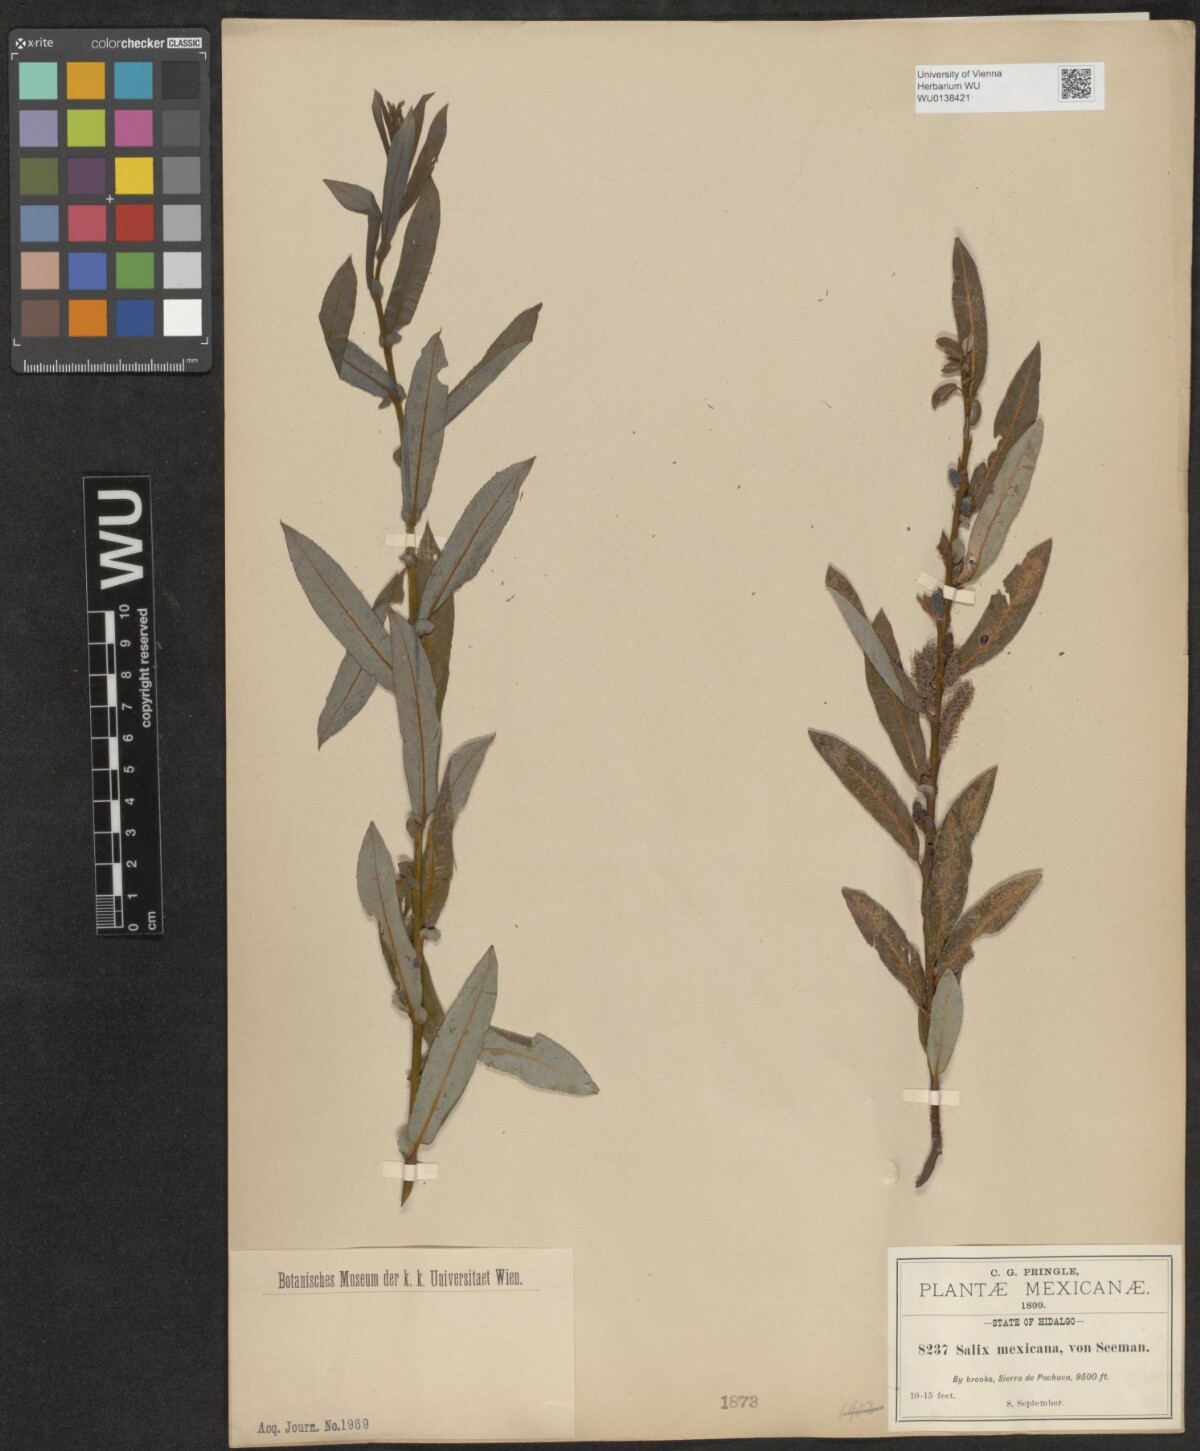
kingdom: Plantae
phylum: Tracheophyta
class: Magnoliopsida
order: Malpighiales
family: Salicaceae
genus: Salix
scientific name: Salix mexicana
